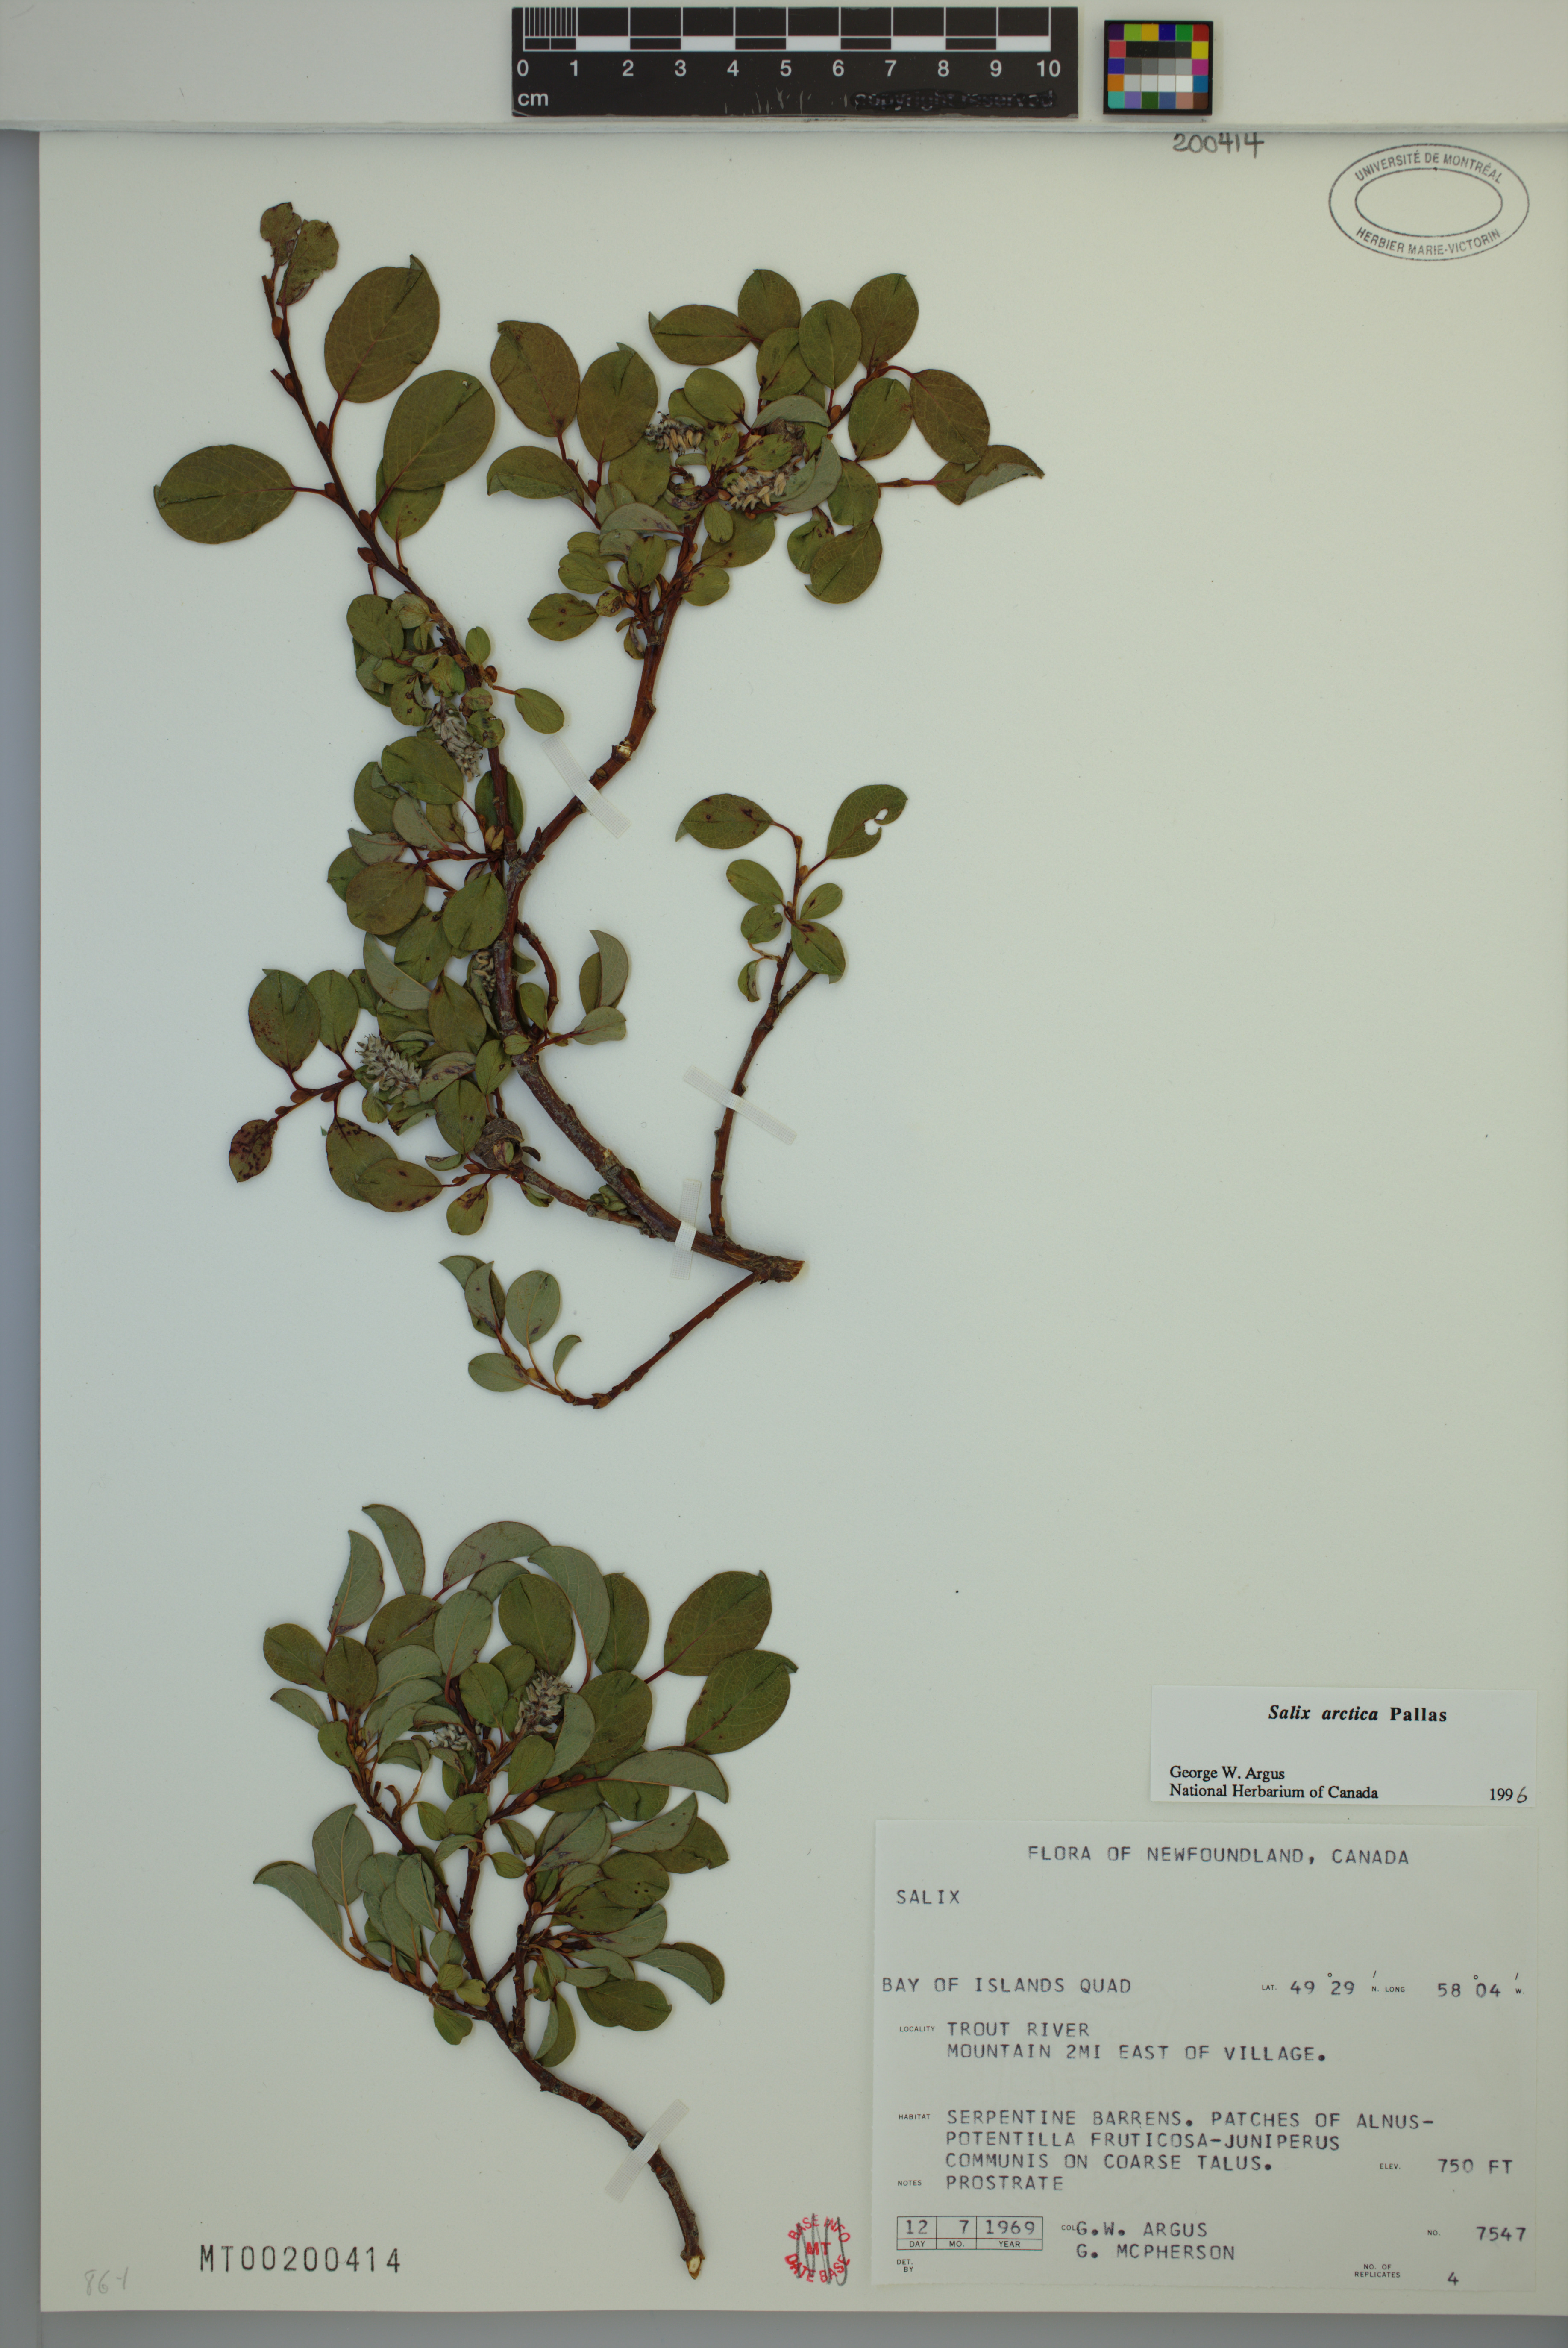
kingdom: Plantae
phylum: Tracheophyta
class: Magnoliopsida
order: Malpighiales
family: Salicaceae
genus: Salix
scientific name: Salix arctica
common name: Arctic willow
